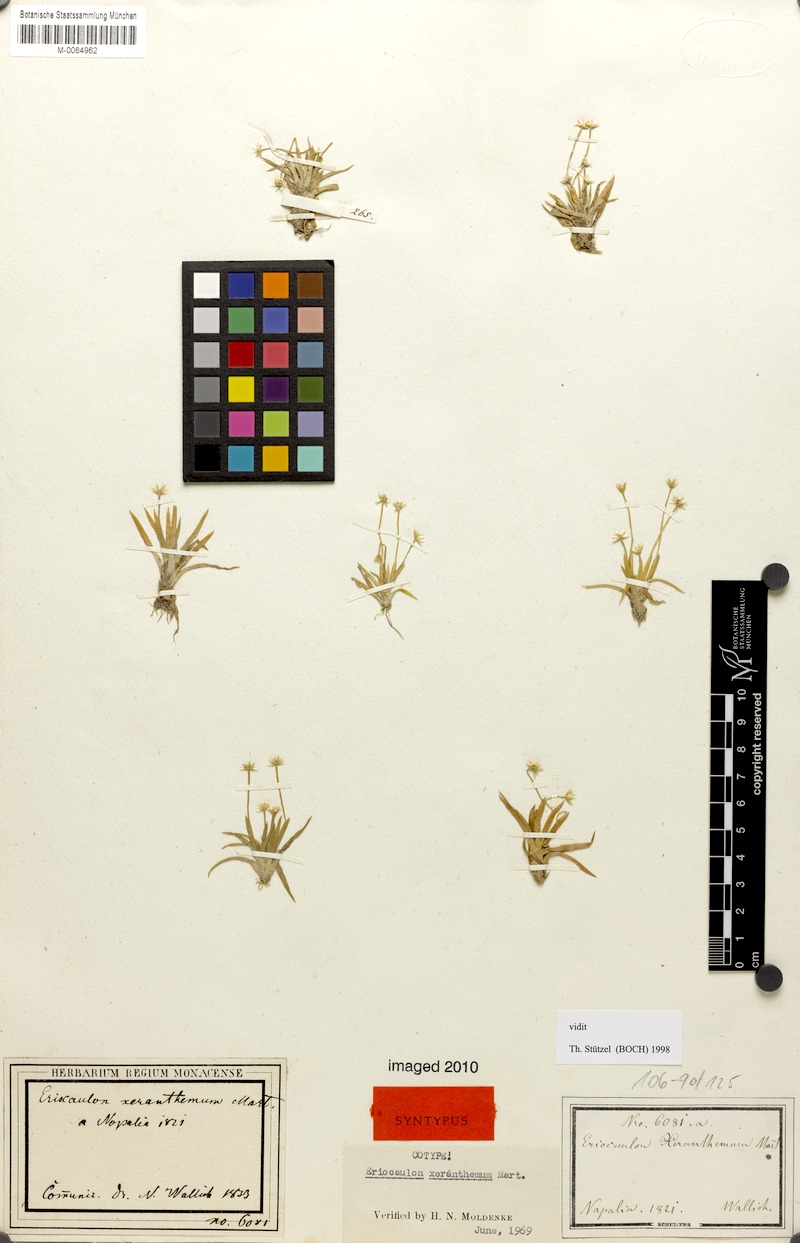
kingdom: Plantae
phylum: Tracheophyta
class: Liliopsida
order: Poales
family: Eriocaulaceae
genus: Eriocaulon
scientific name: Eriocaulon xeranthemum
